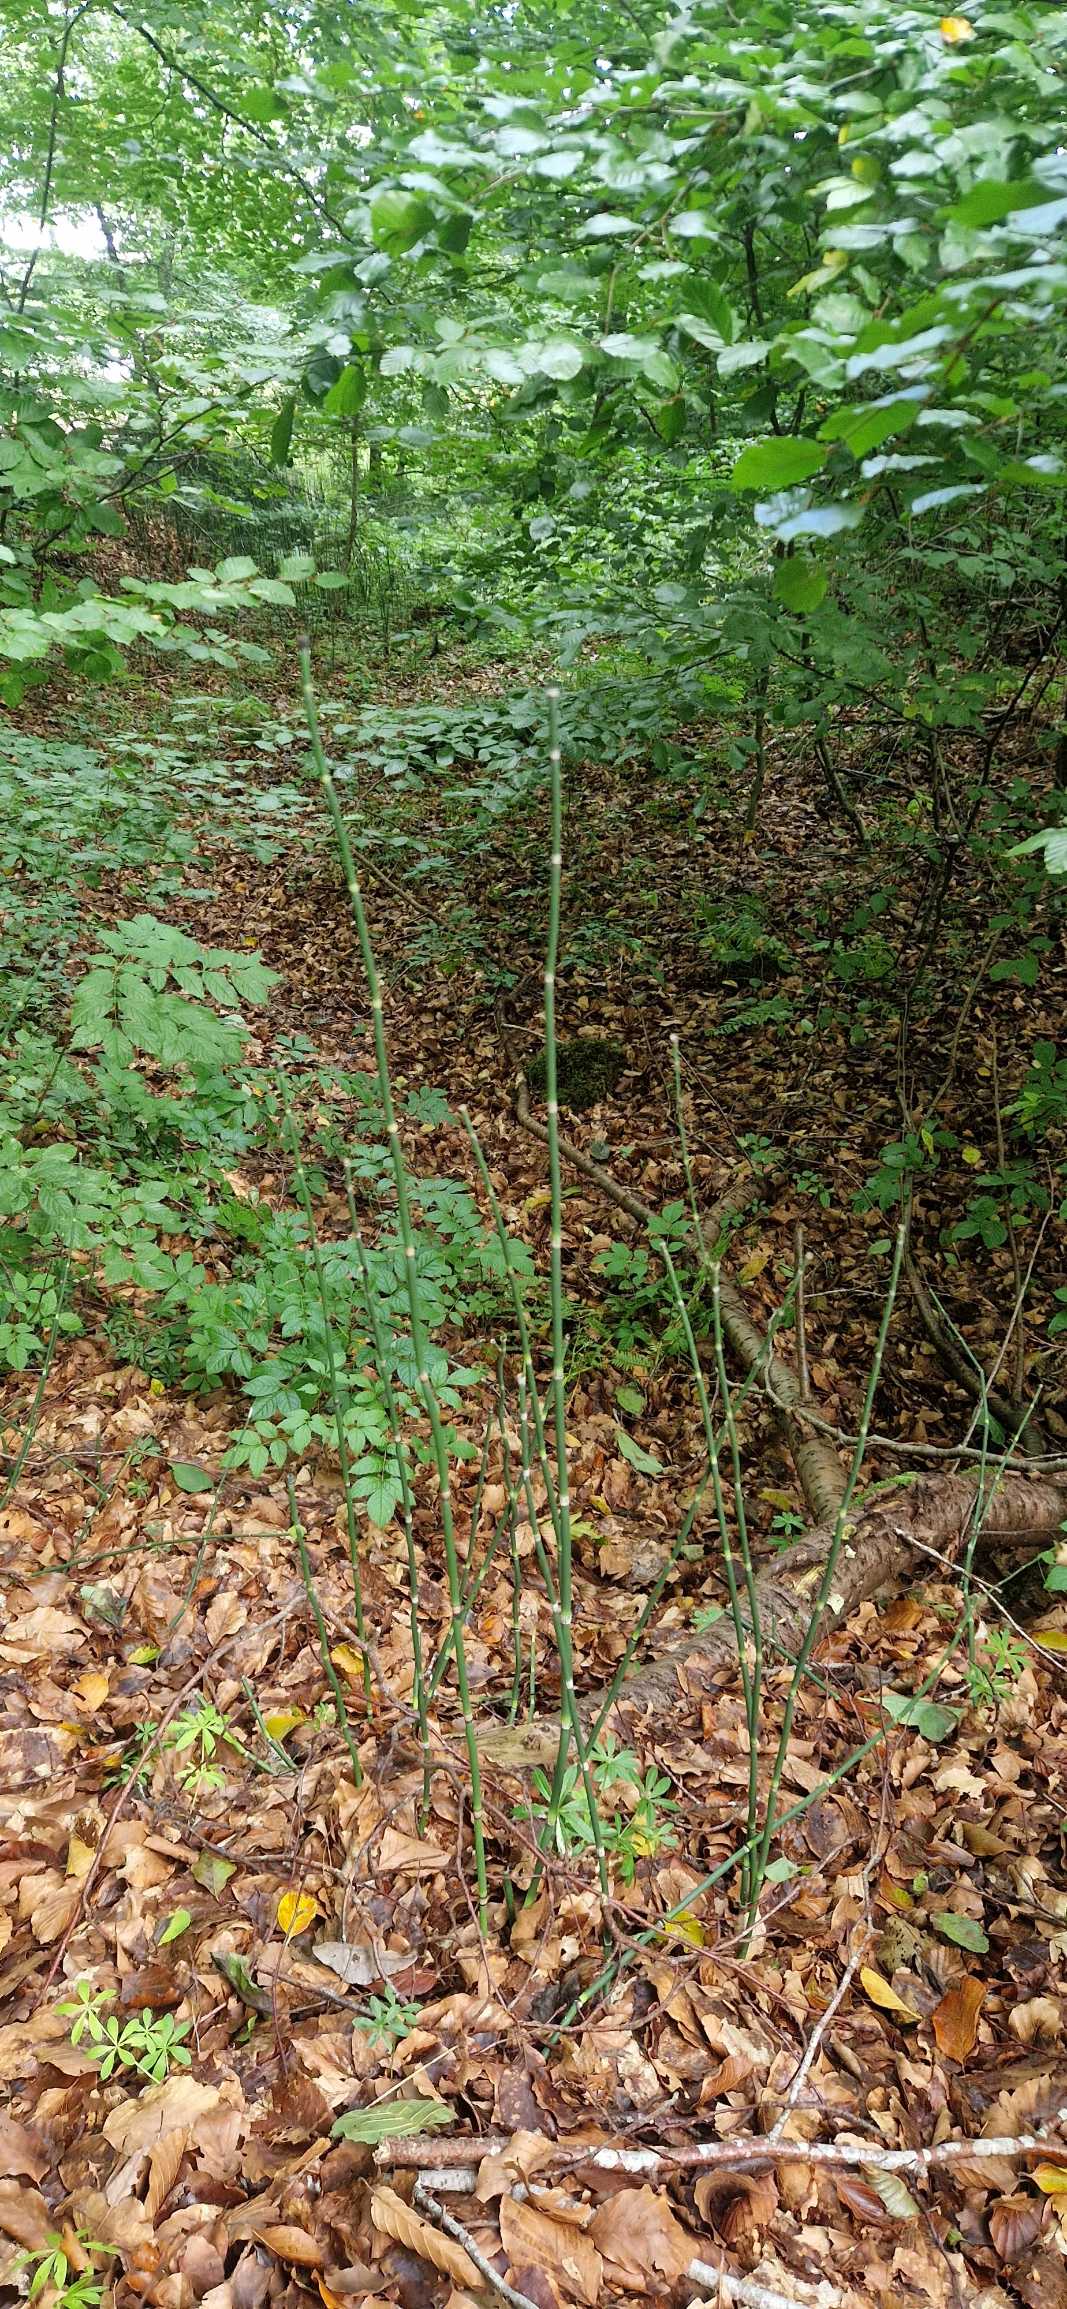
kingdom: Plantae
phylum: Tracheophyta
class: Polypodiopsida
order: Equisetales
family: Equisetaceae
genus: Equisetum
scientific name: Equisetum hyemale
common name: Skavgræs
